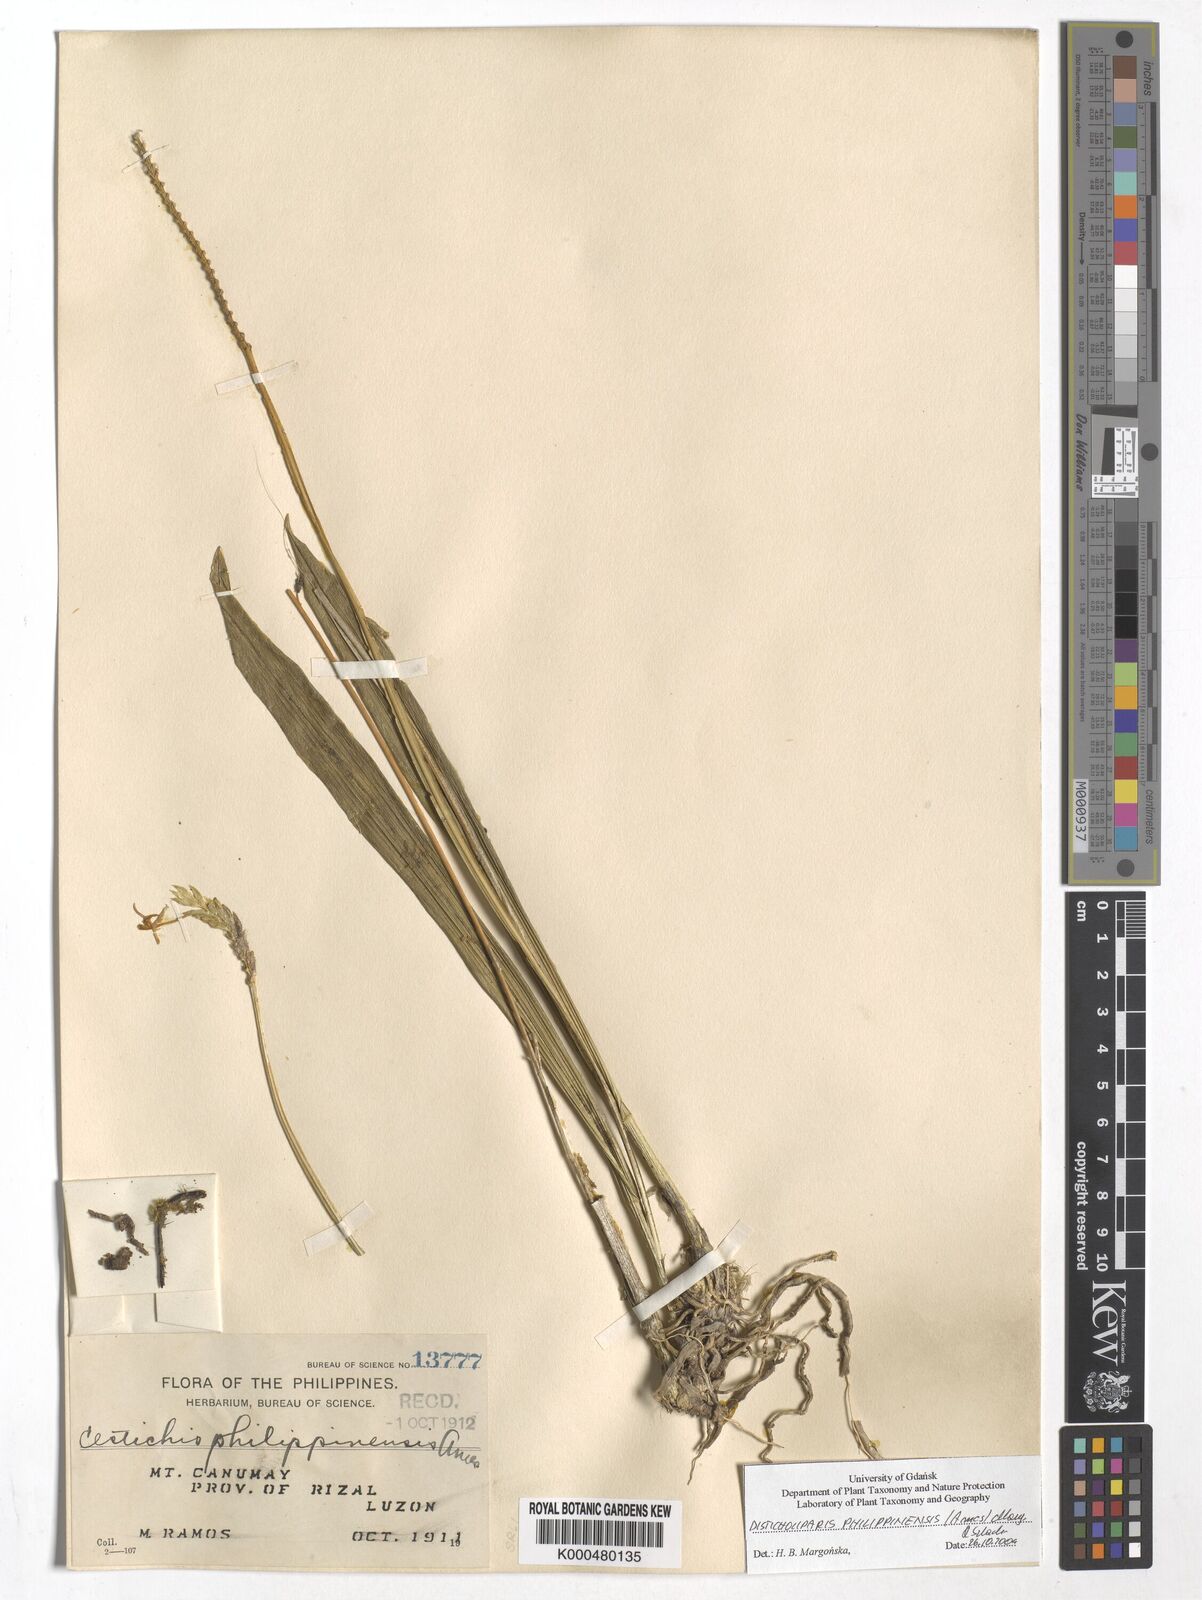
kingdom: Plantae
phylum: Tracheophyta
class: Liliopsida
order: Asparagales
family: Orchidaceae
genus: Liparis
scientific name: Liparis philippinensis
